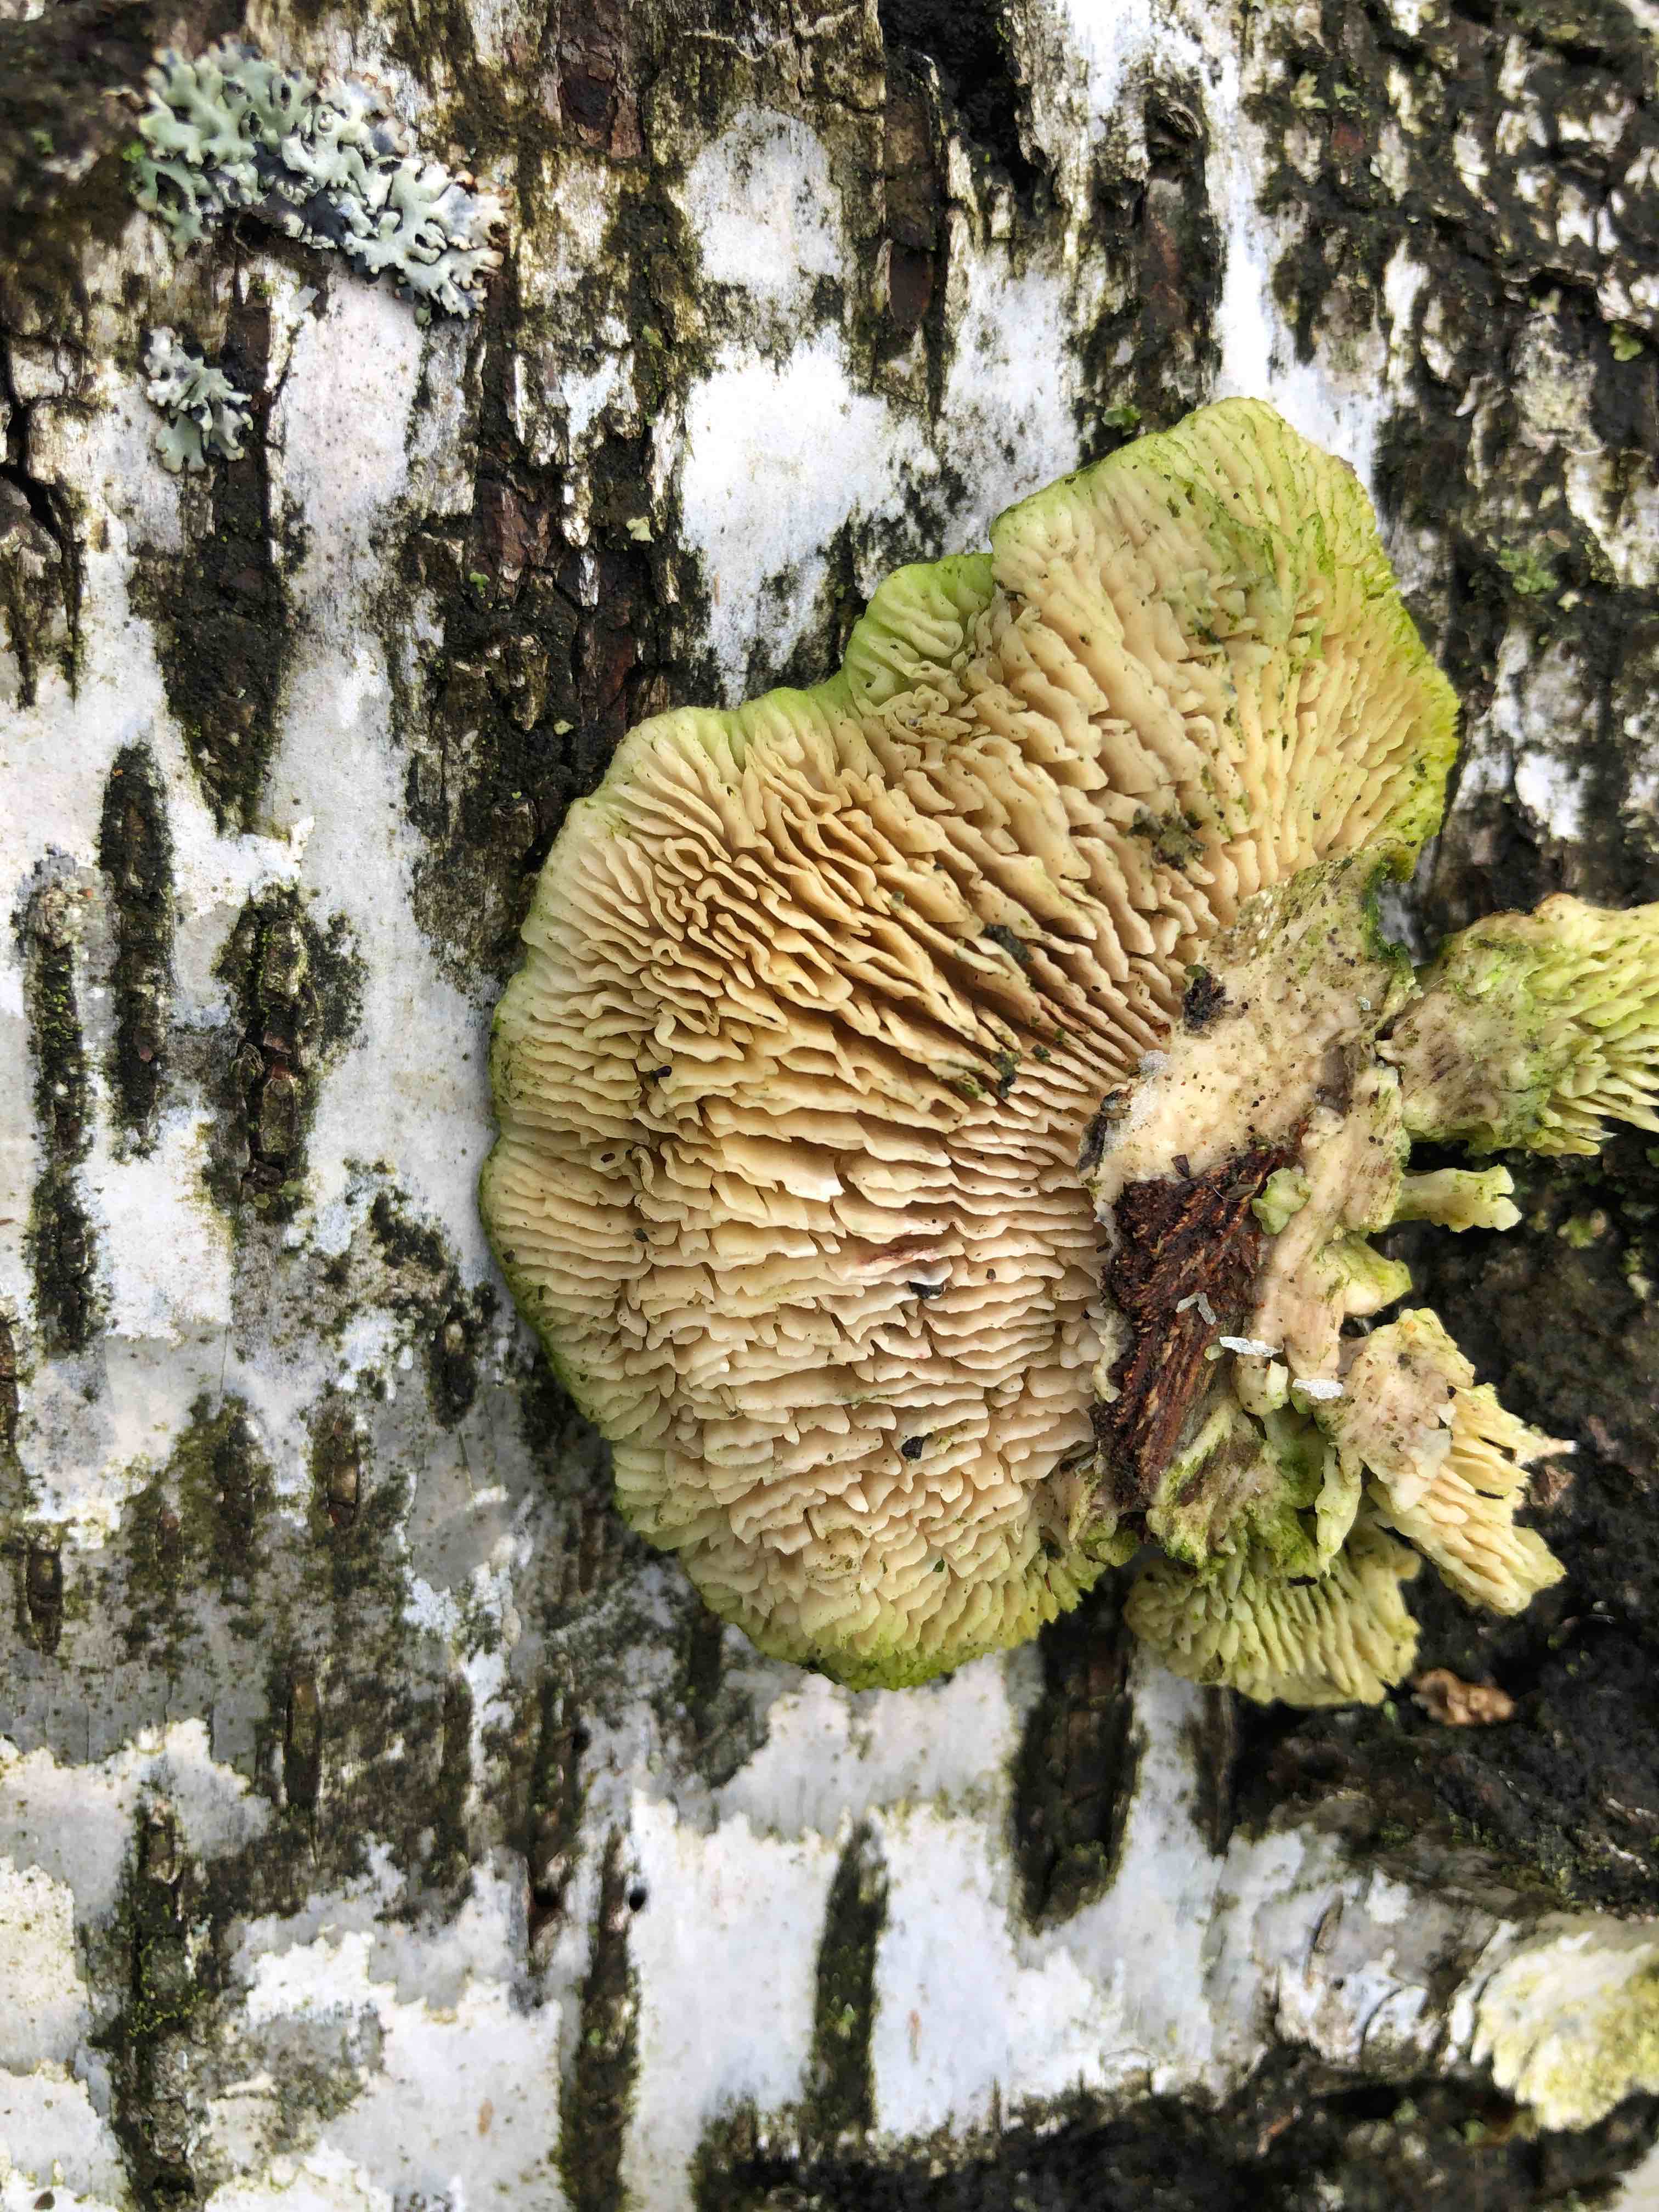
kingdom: Fungi
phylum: Basidiomycota
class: Agaricomycetes
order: Polyporales
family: Polyporaceae
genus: Lenzites
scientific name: Lenzites betulinus
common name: birke-læderporesvamp
